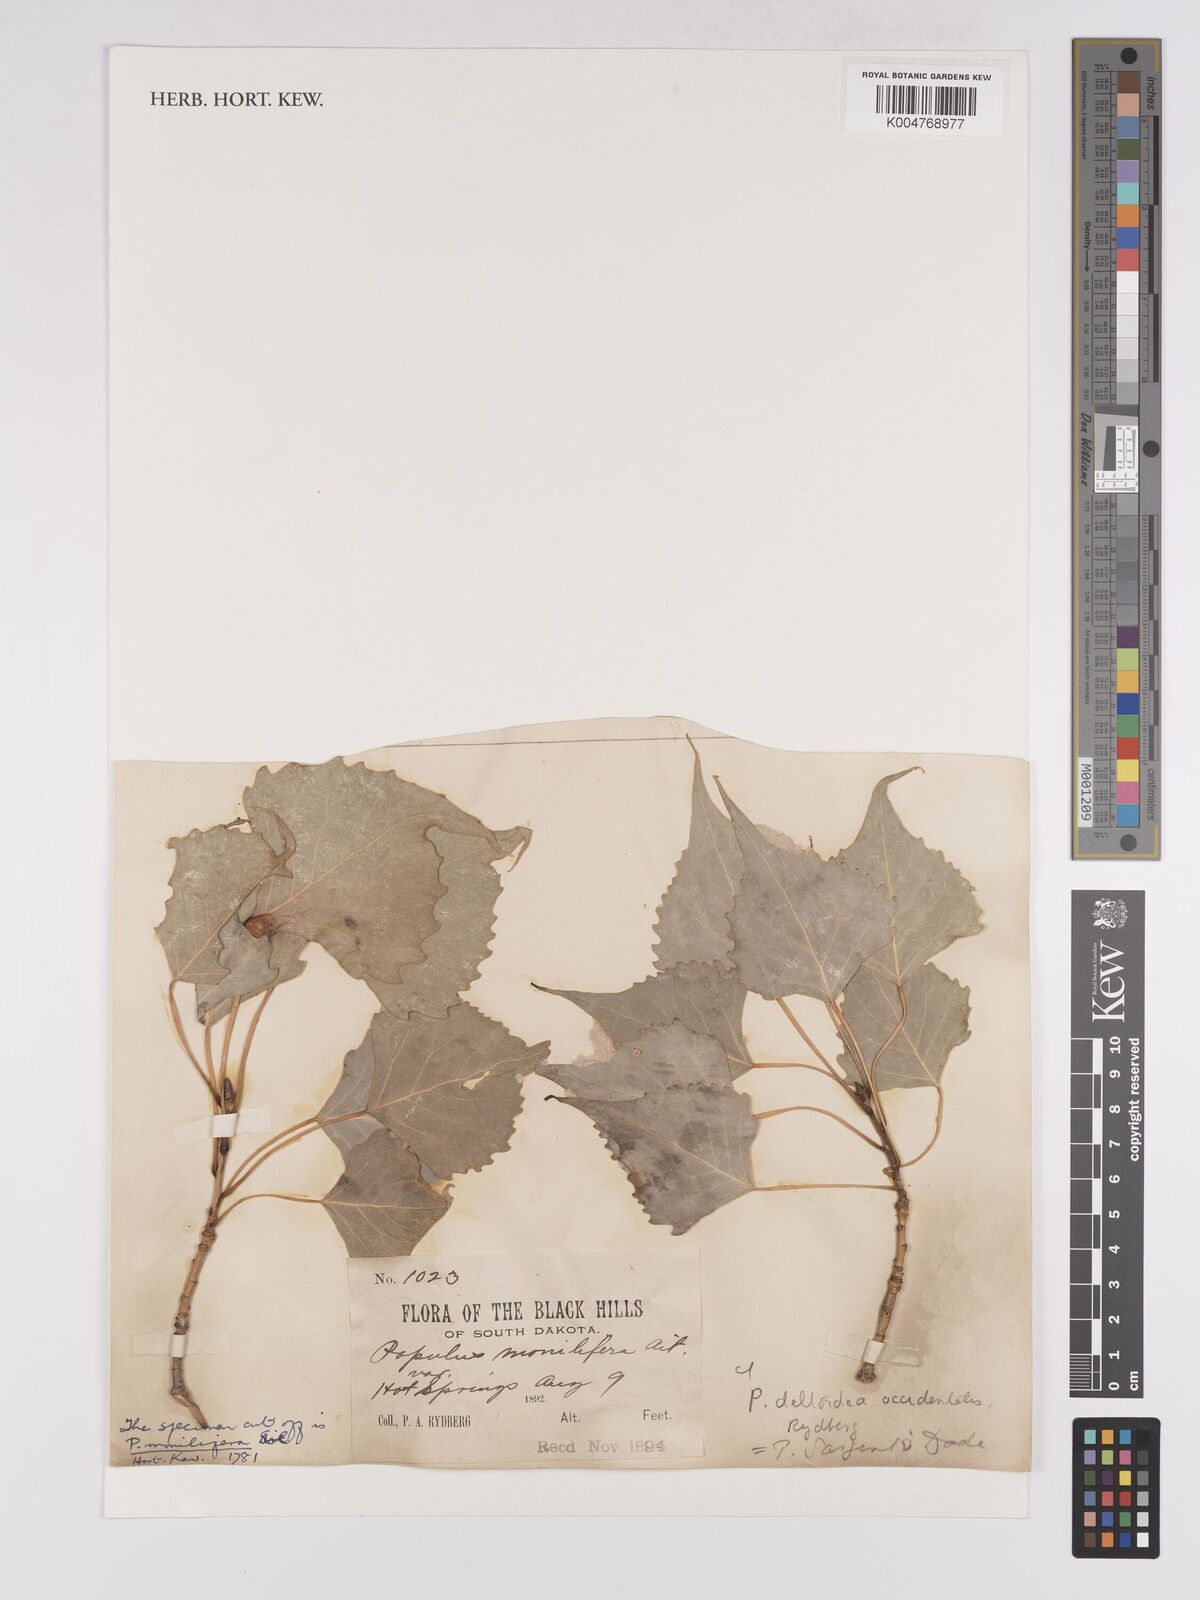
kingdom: Plantae
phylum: Tracheophyta
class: Magnoliopsida
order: Malpighiales
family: Salicaceae
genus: Populus
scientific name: Populus deltoides
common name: Eastern cottonwood
